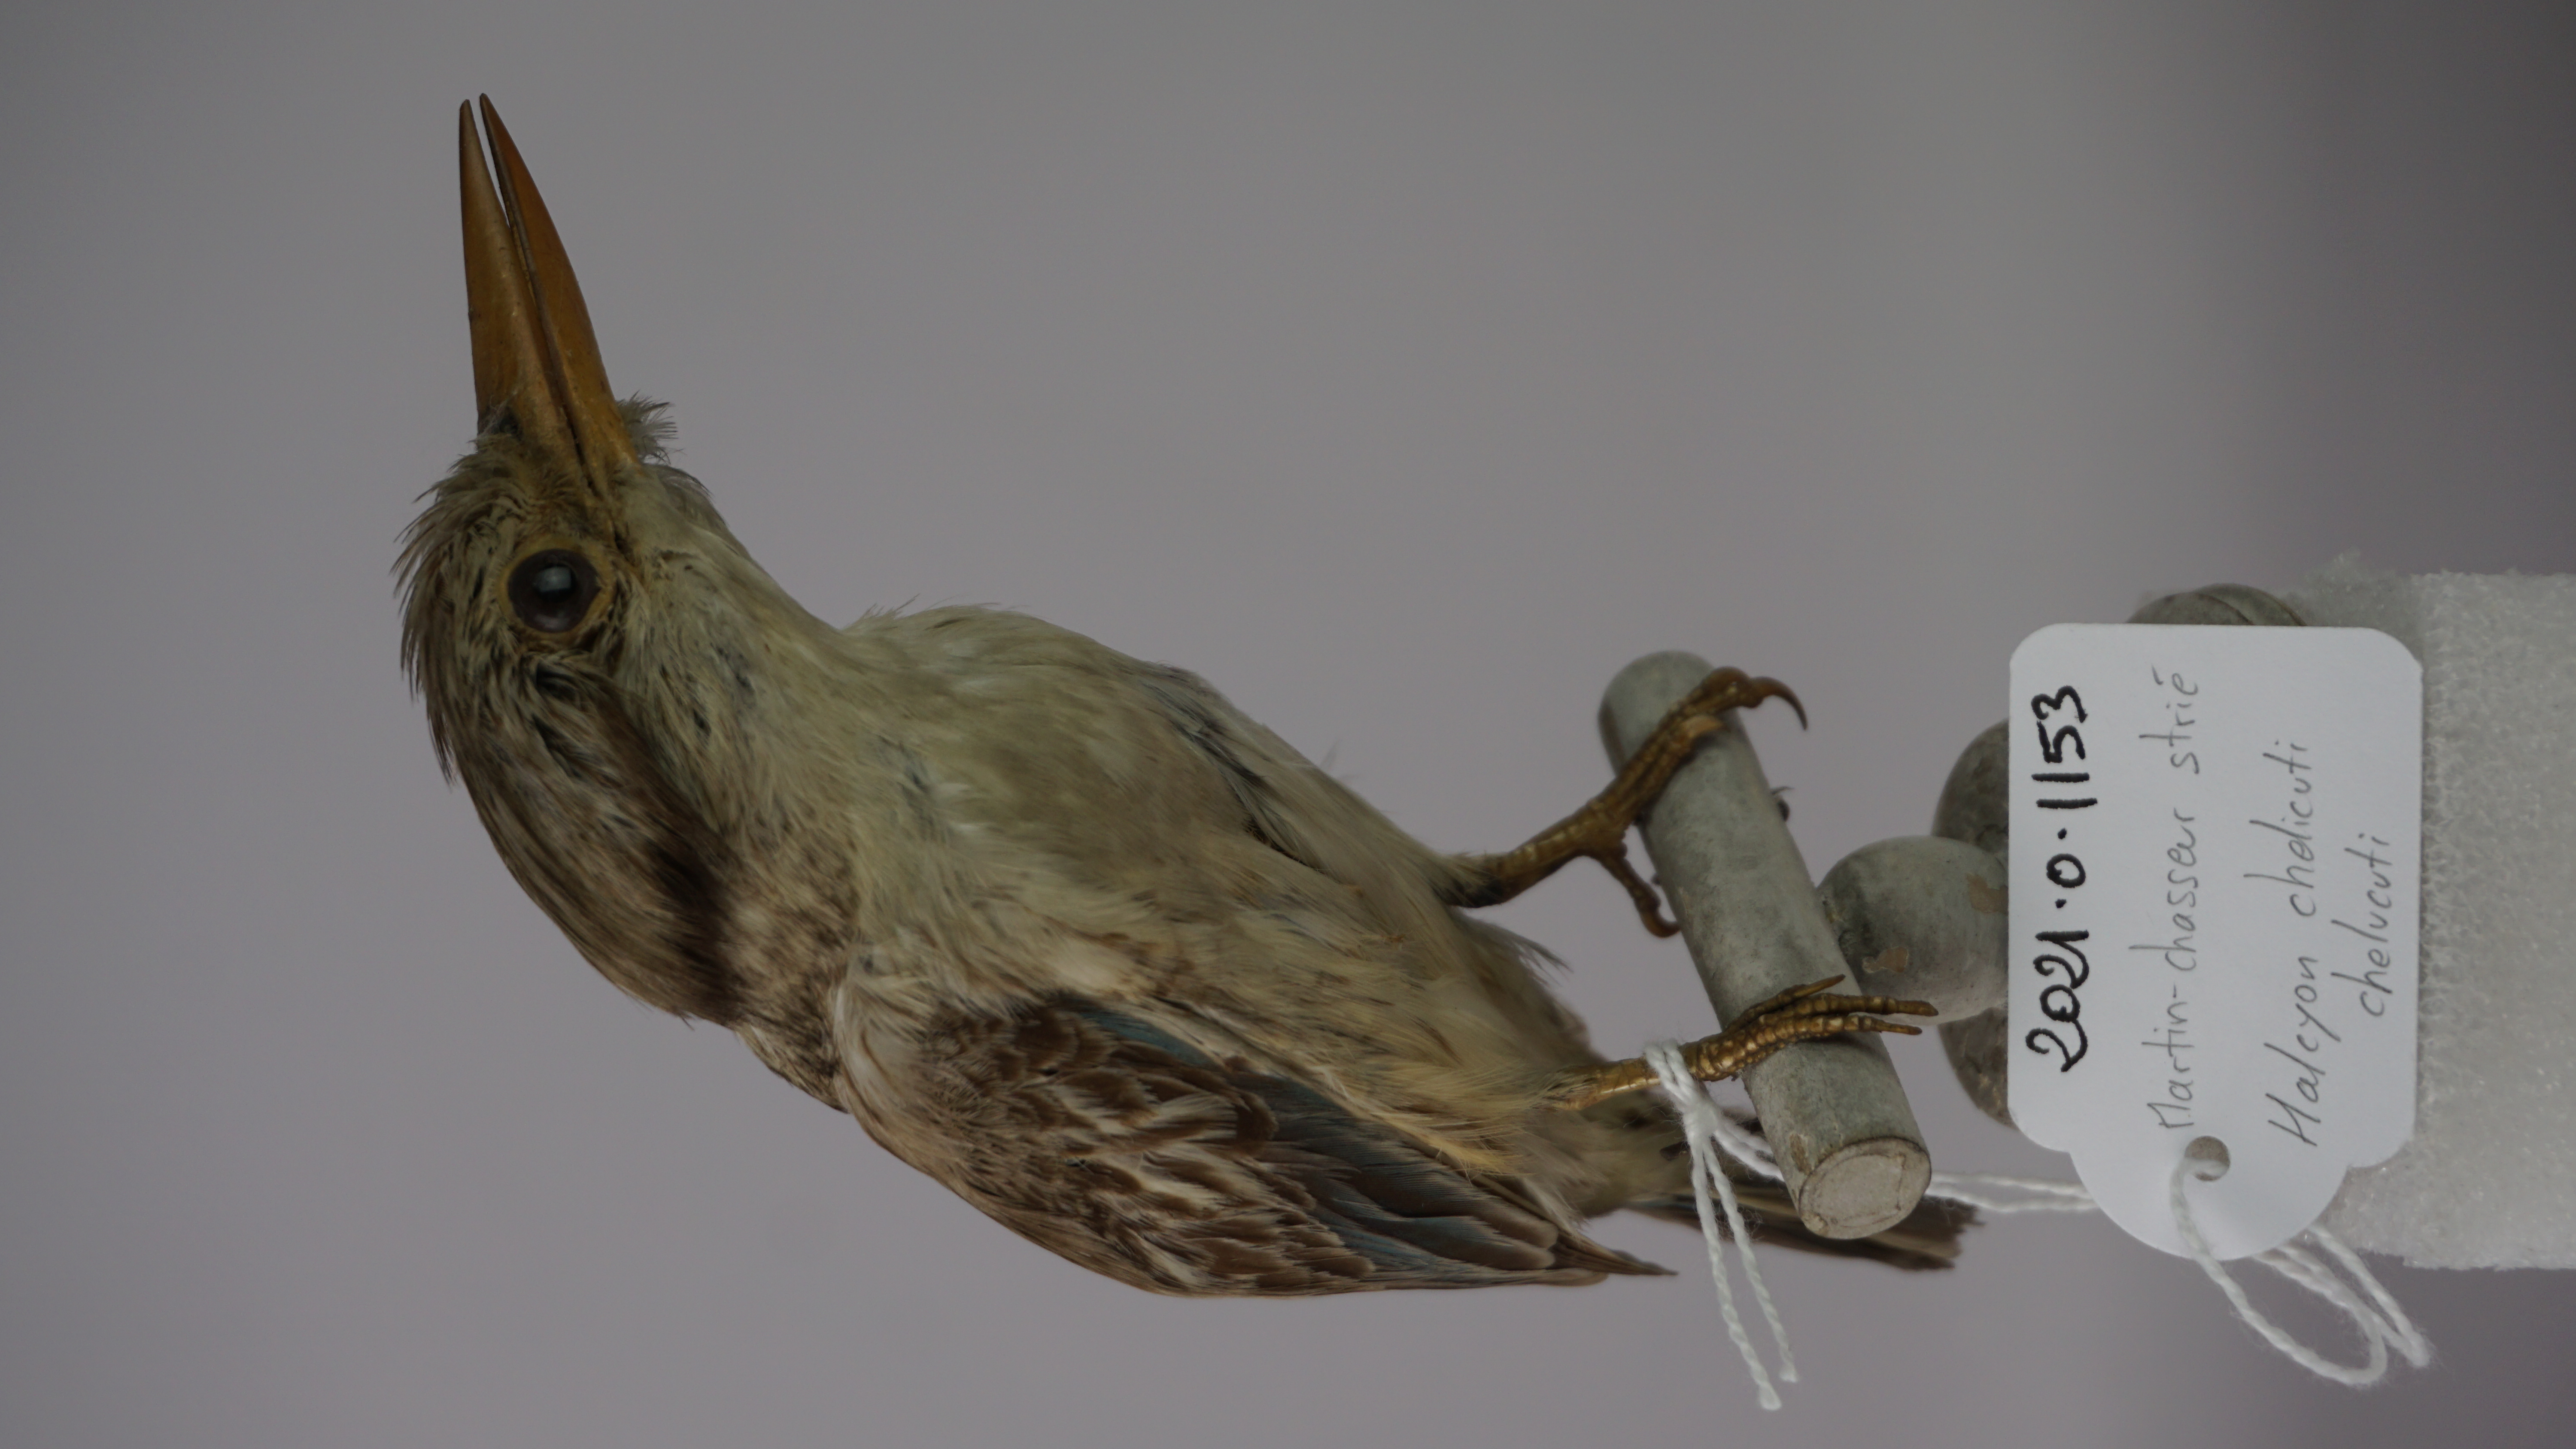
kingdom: Animalia
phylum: Chordata
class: Aves
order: Coraciiformes
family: Alcedinidae
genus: Halcyon
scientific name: Halcyon chelicuti
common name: Striped kingfisher
